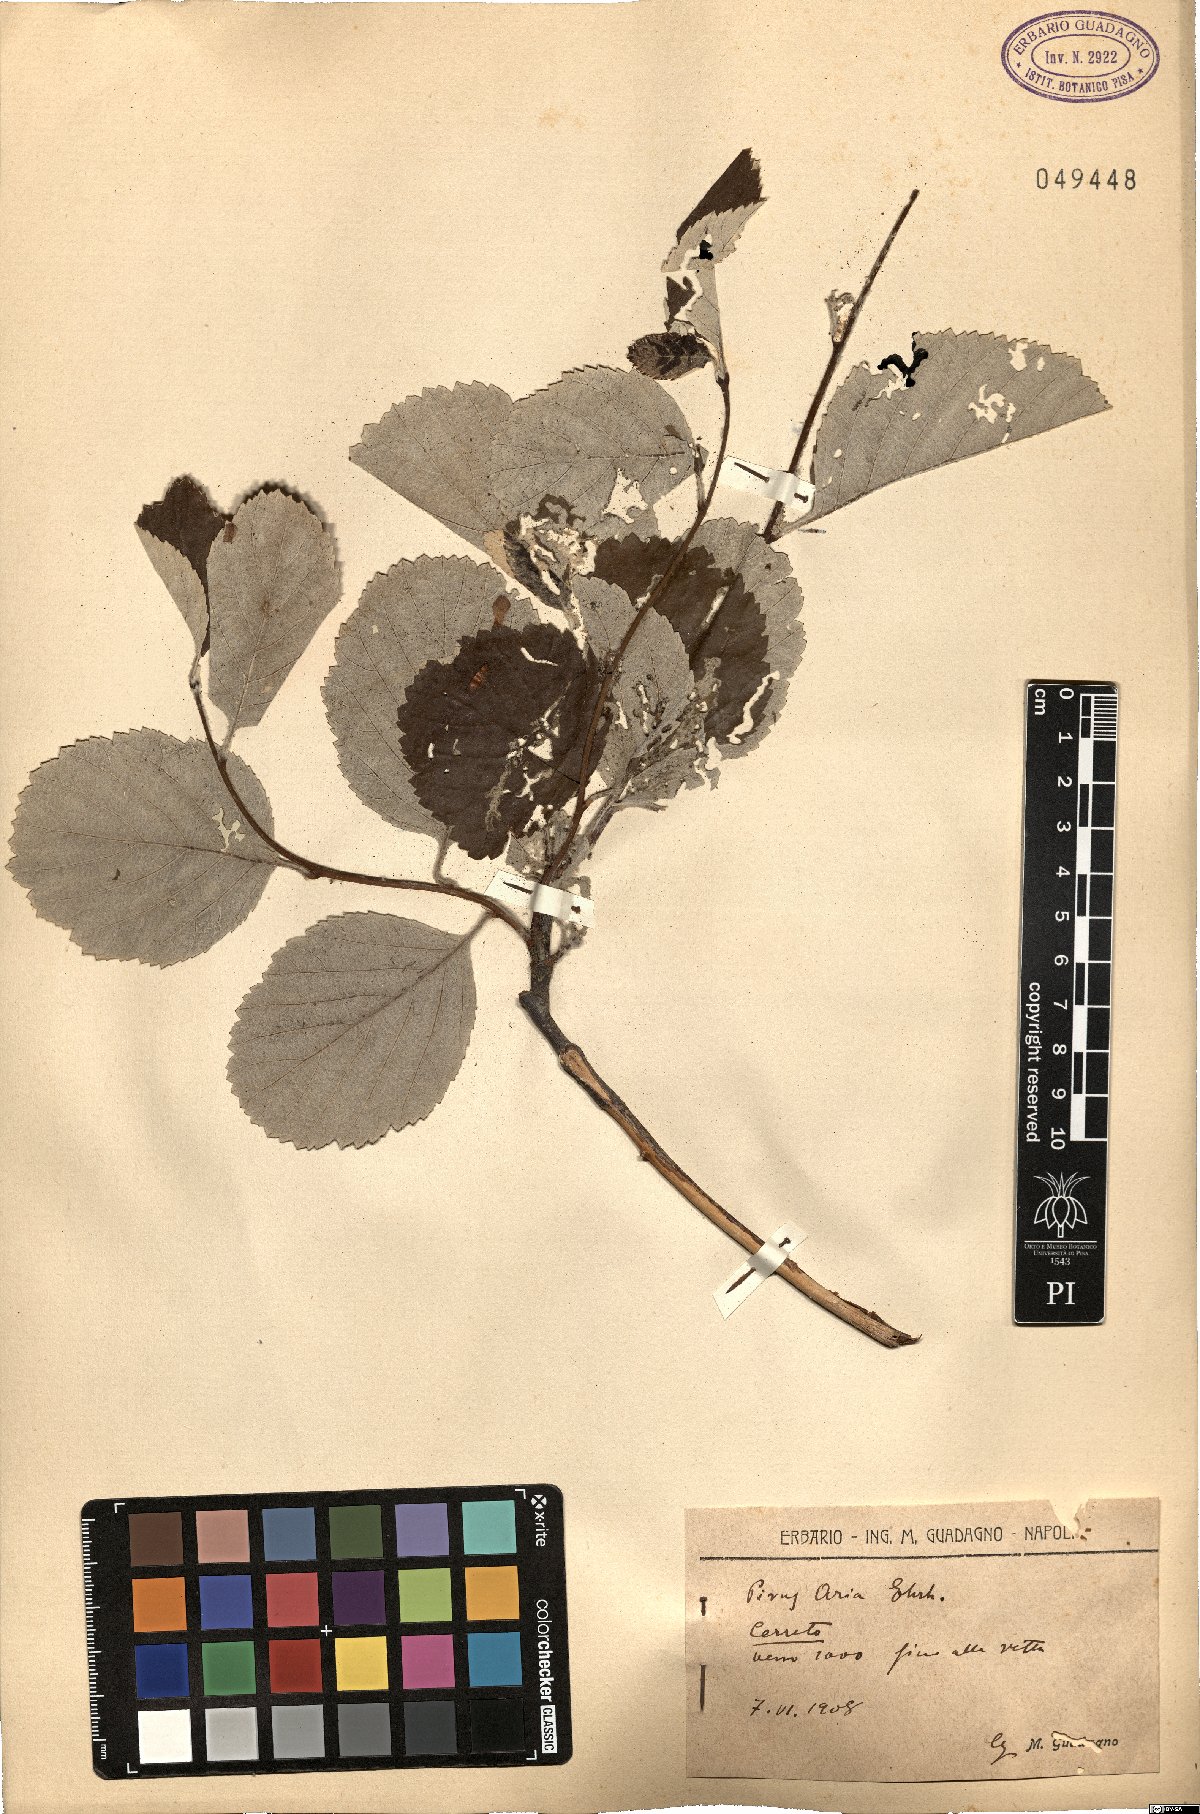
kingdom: Plantae
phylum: Tracheophyta
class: Magnoliopsida
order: Rosales
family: Rosaceae
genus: Aria
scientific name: Aria edulis
